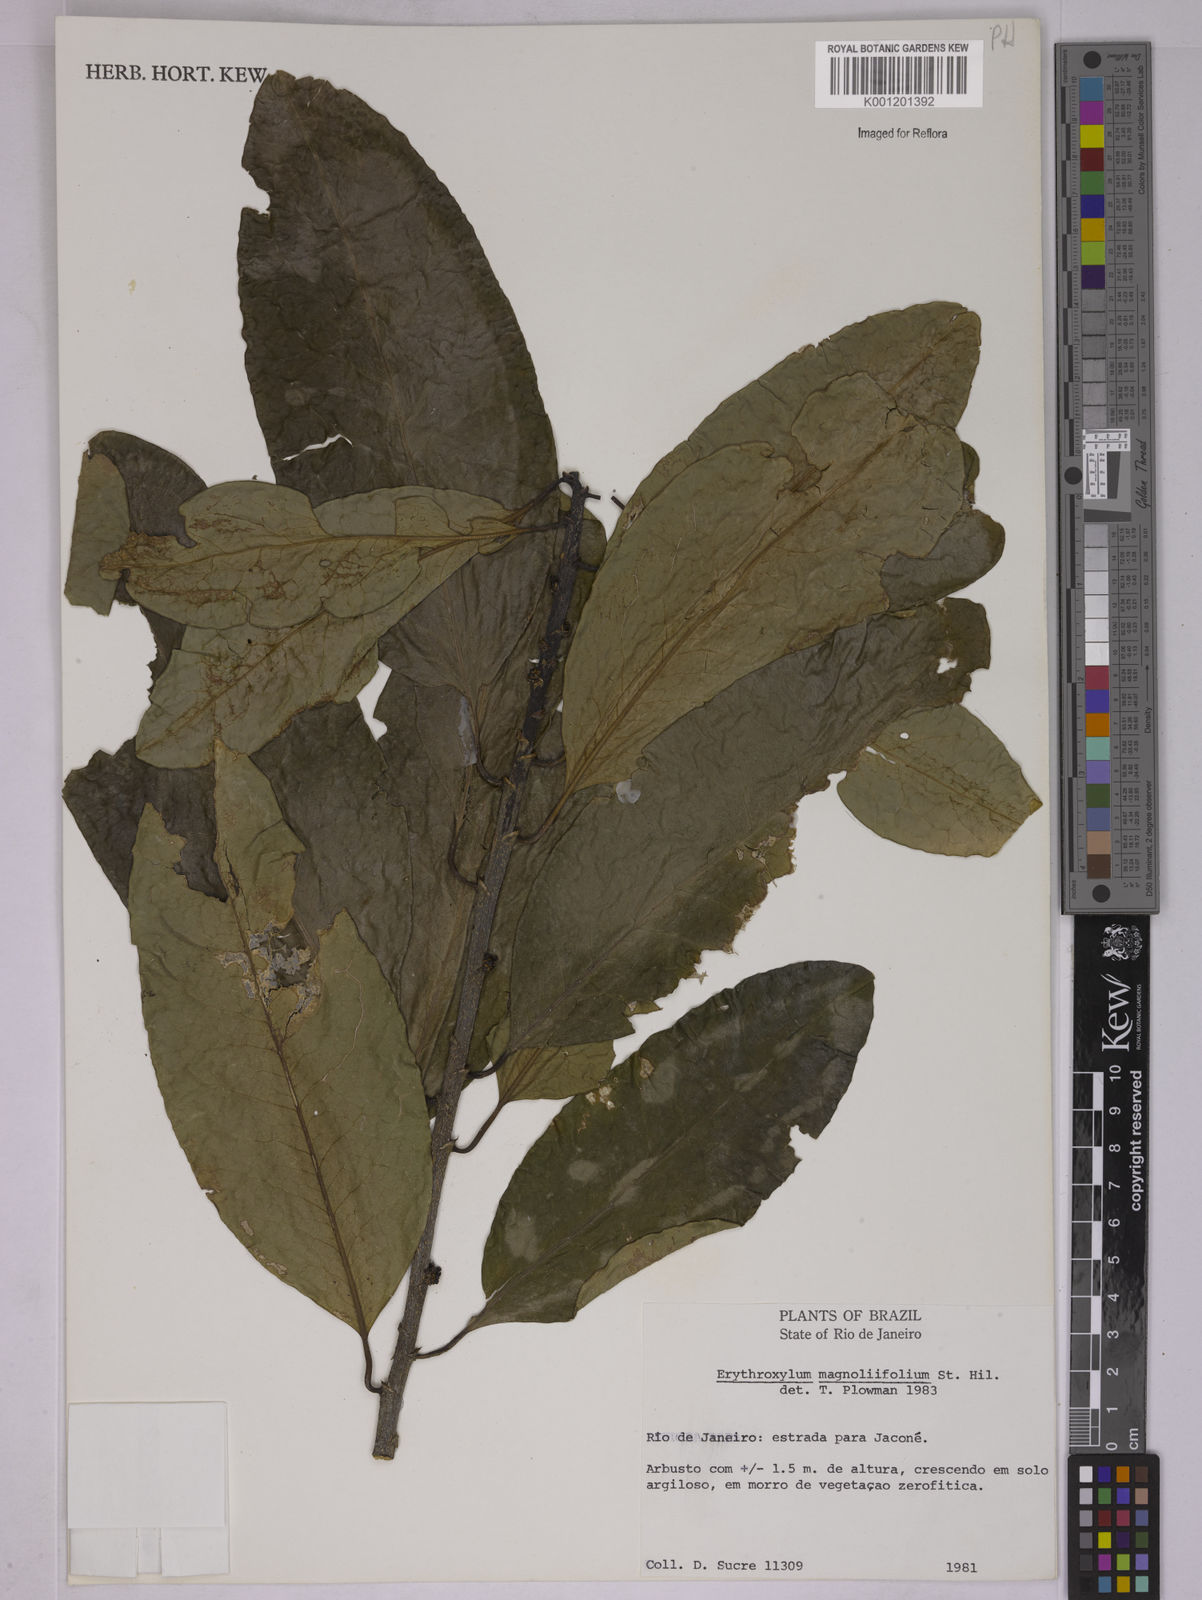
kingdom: Plantae
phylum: Tracheophyta
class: Magnoliopsida
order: Malpighiales
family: Erythroxylaceae
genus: Erythroxylum
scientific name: Erythroxylum magnoliifolium
